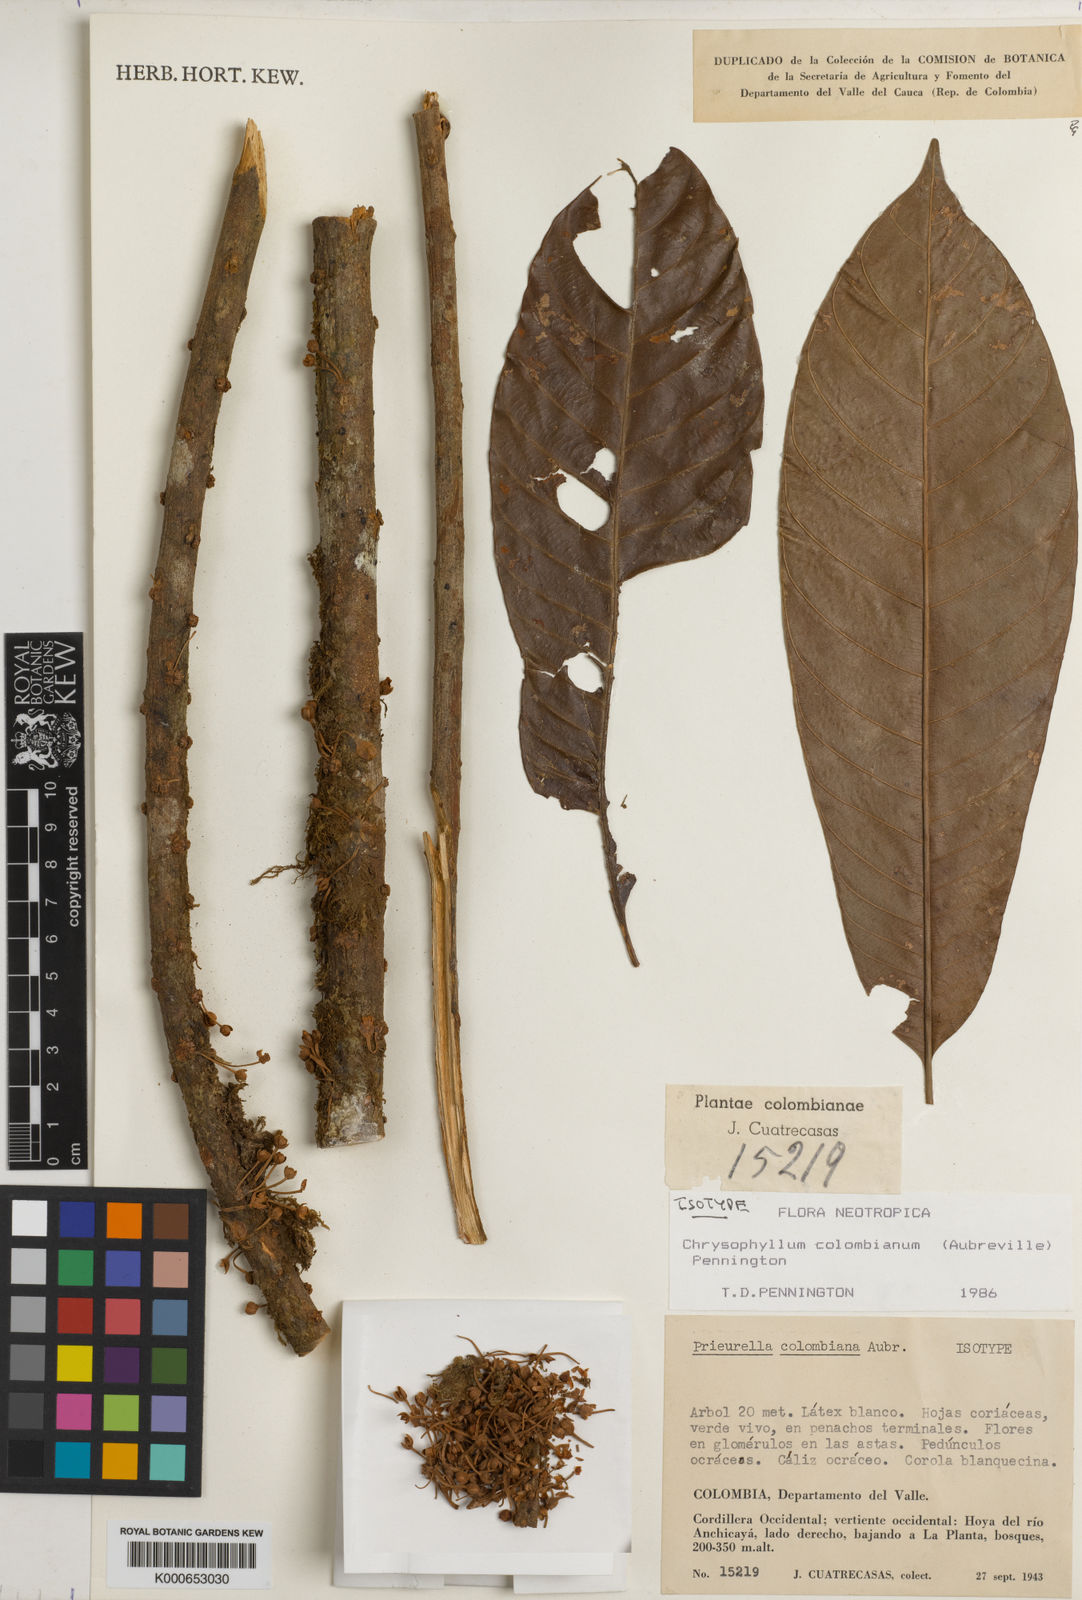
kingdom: Plantae
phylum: Tracheophyta
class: Magnoliopsida
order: Ericales
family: Sapotaceae
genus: Chrysophyllum
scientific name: Chrysophyllum
